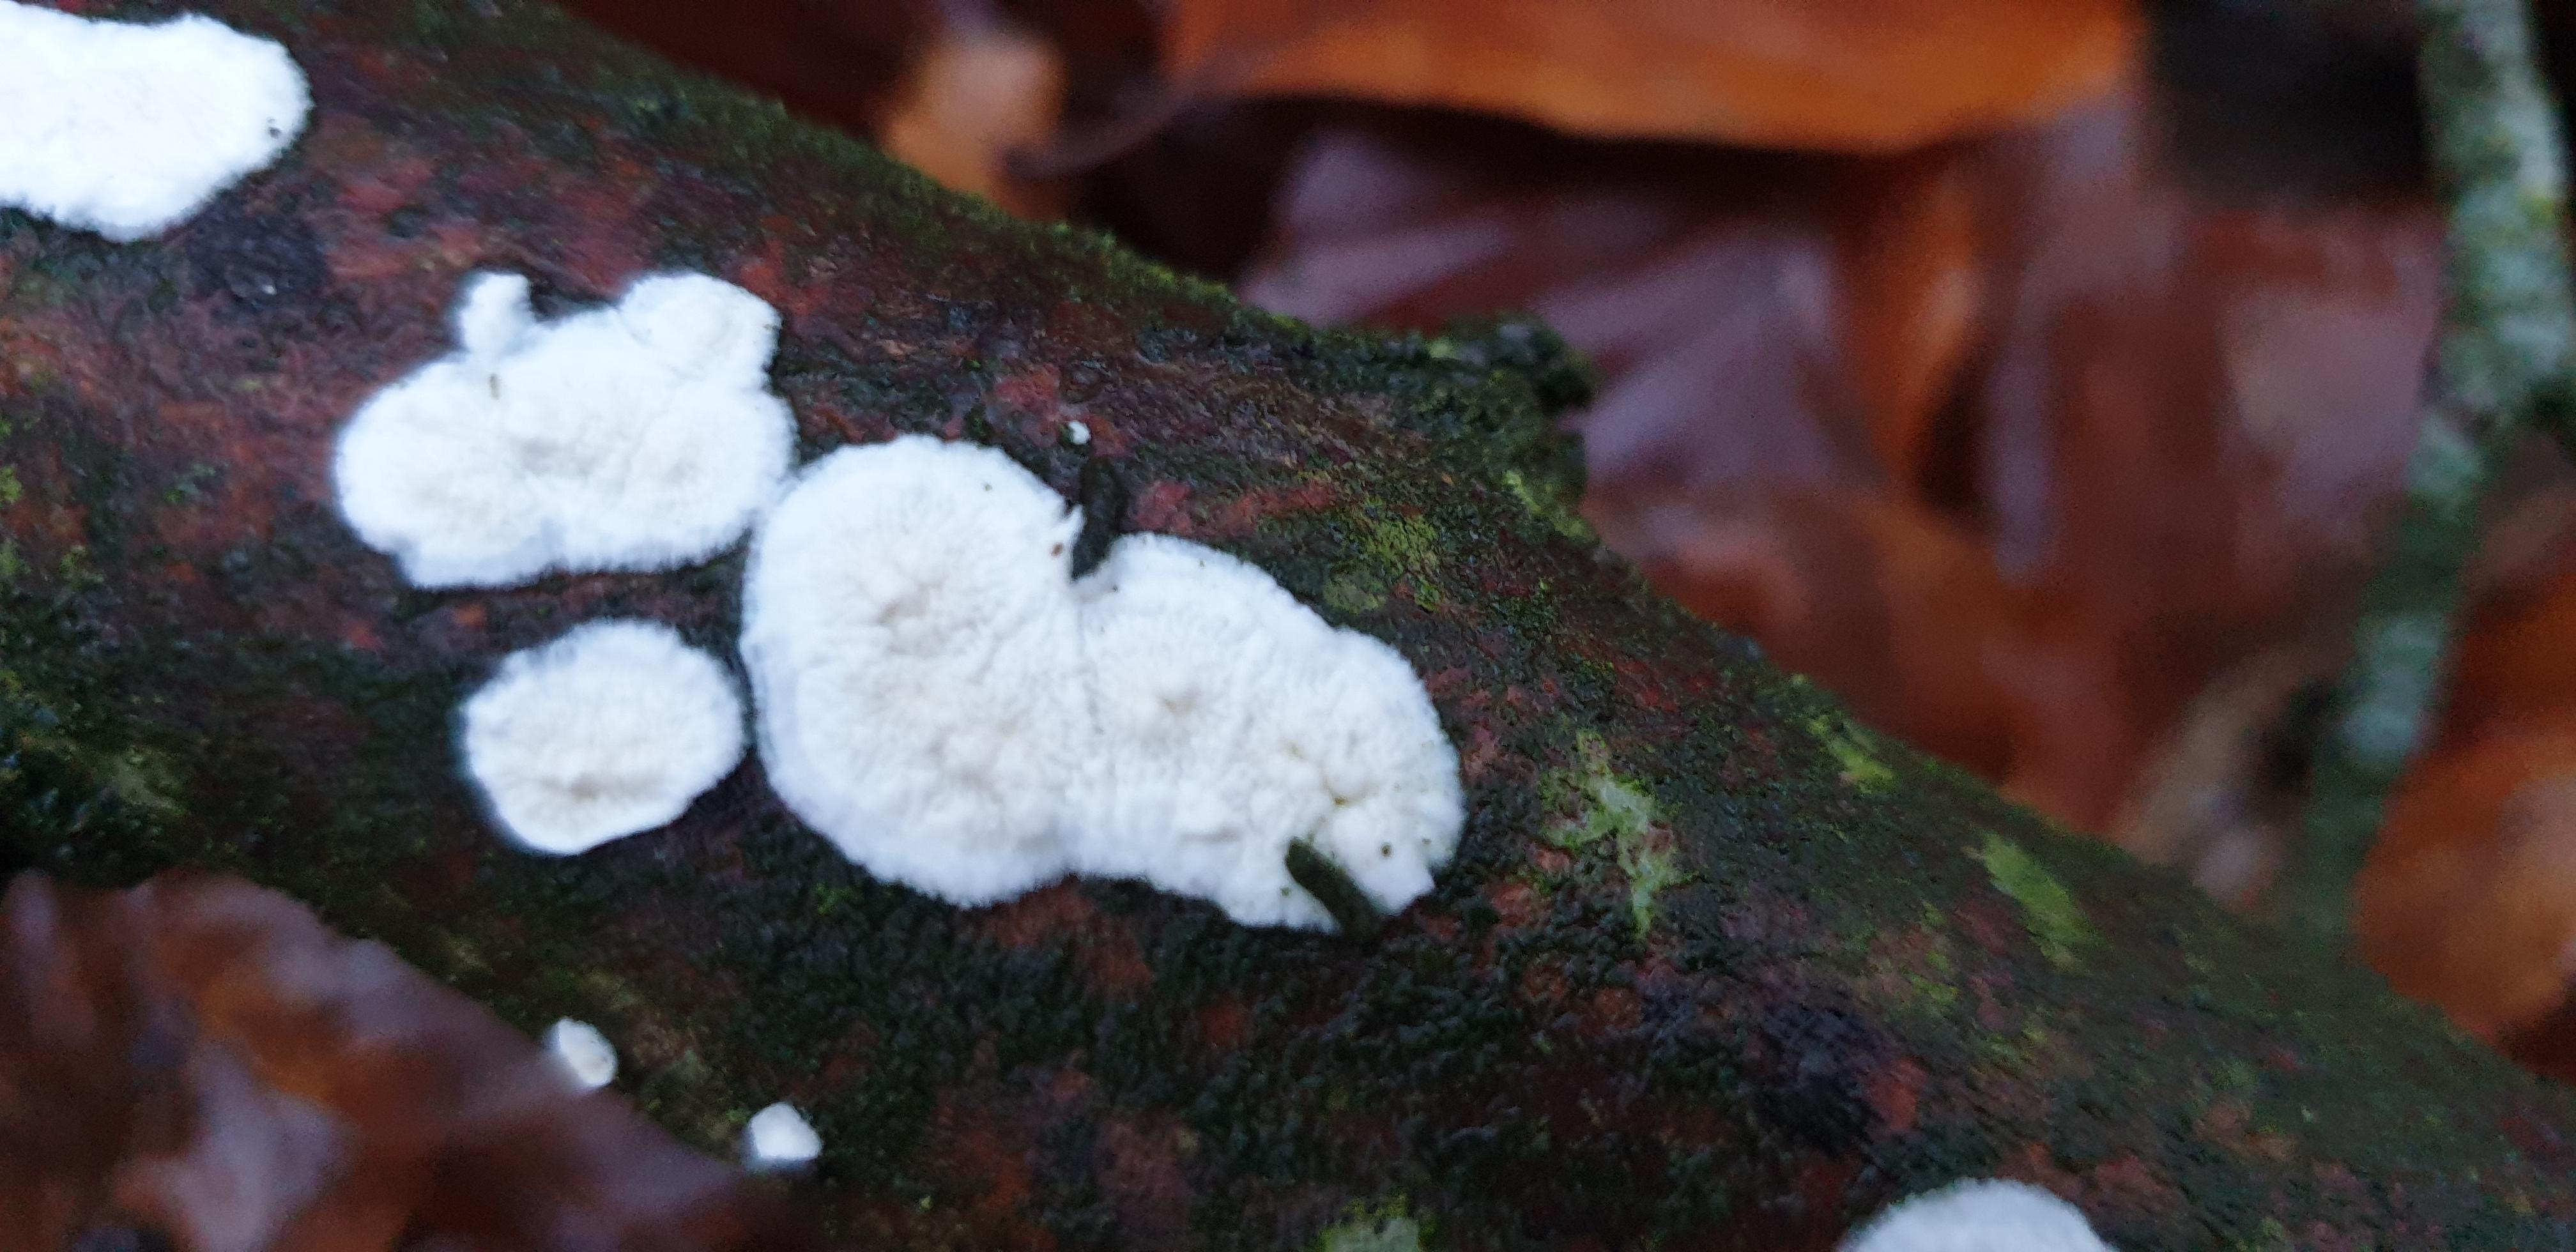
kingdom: Fungi
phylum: Basidiomycota
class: Agaricomycetes
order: Polyporales
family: Irpicaceae
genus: Byssomerulius
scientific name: Byssomerulius corium
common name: læder-åresvamp
